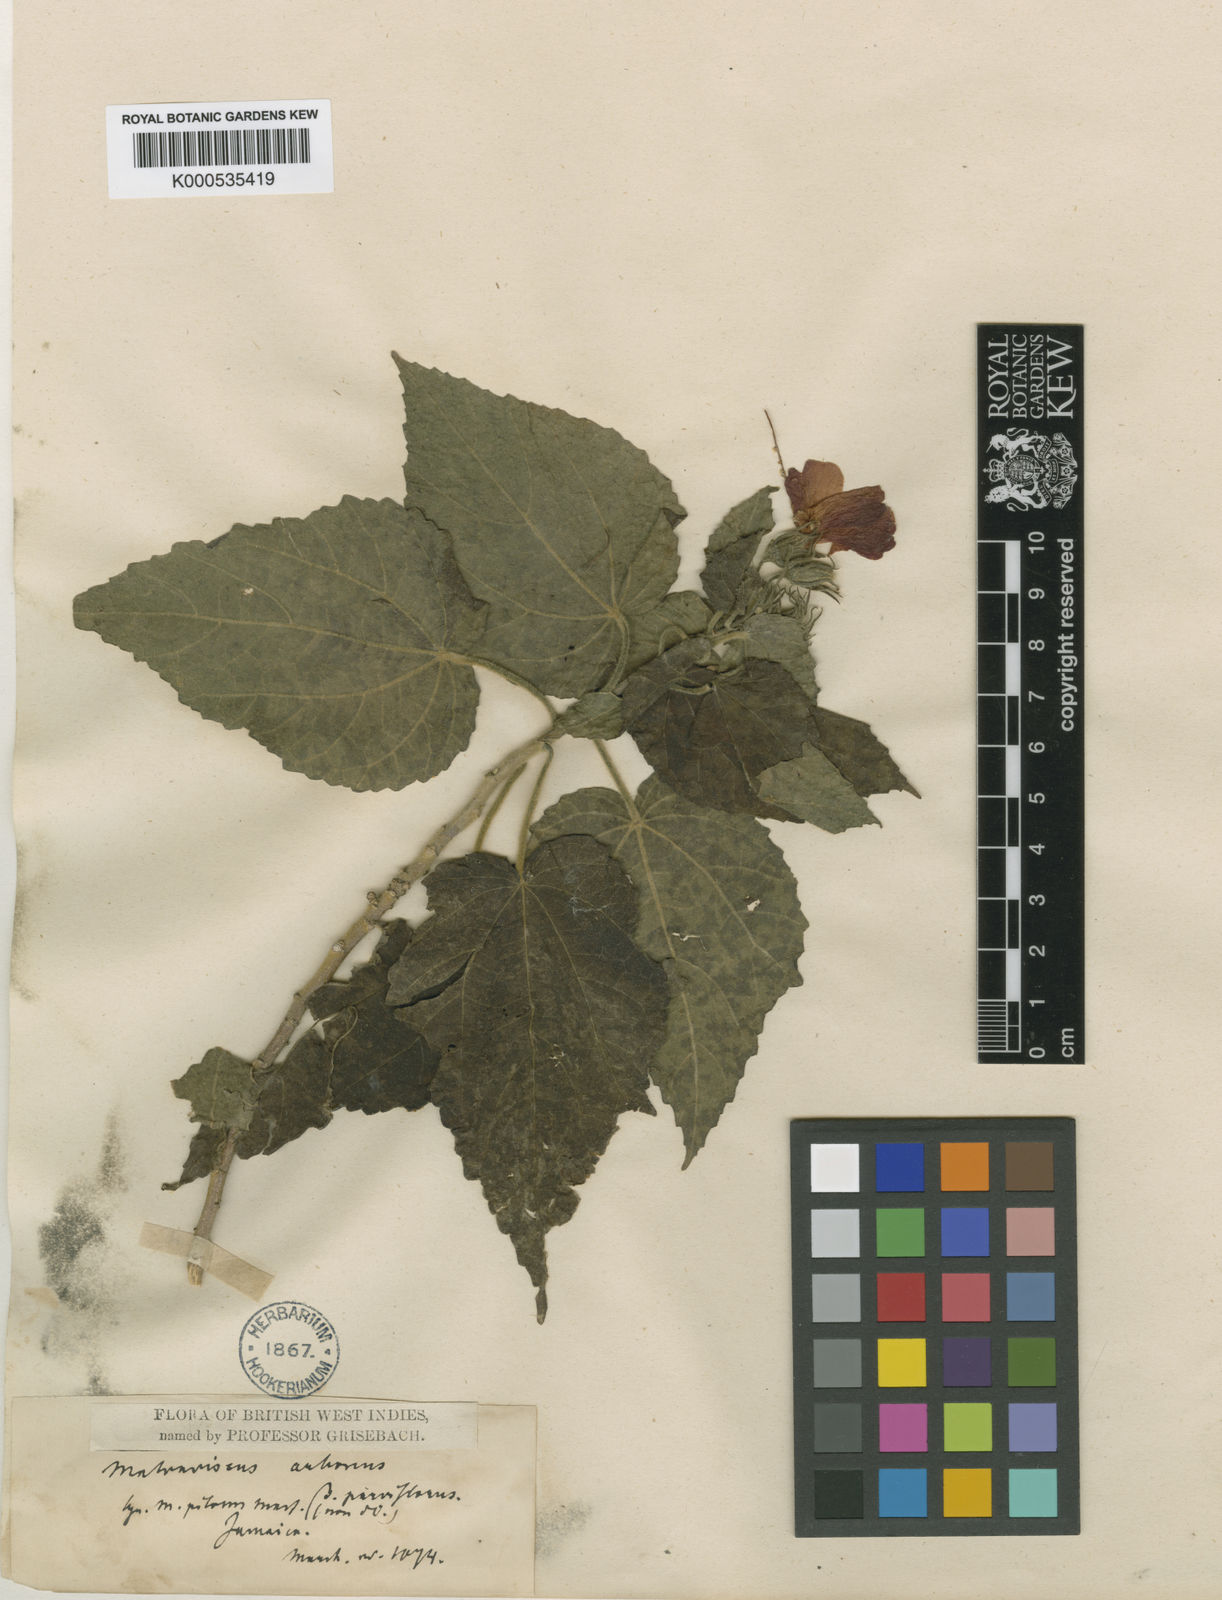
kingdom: Plantae
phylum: Tracheophyta
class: Magnoliopsida
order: Malvales
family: Malvaceae
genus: Malvaviscus
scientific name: Malvaviscus arboreus
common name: Wax mallow
